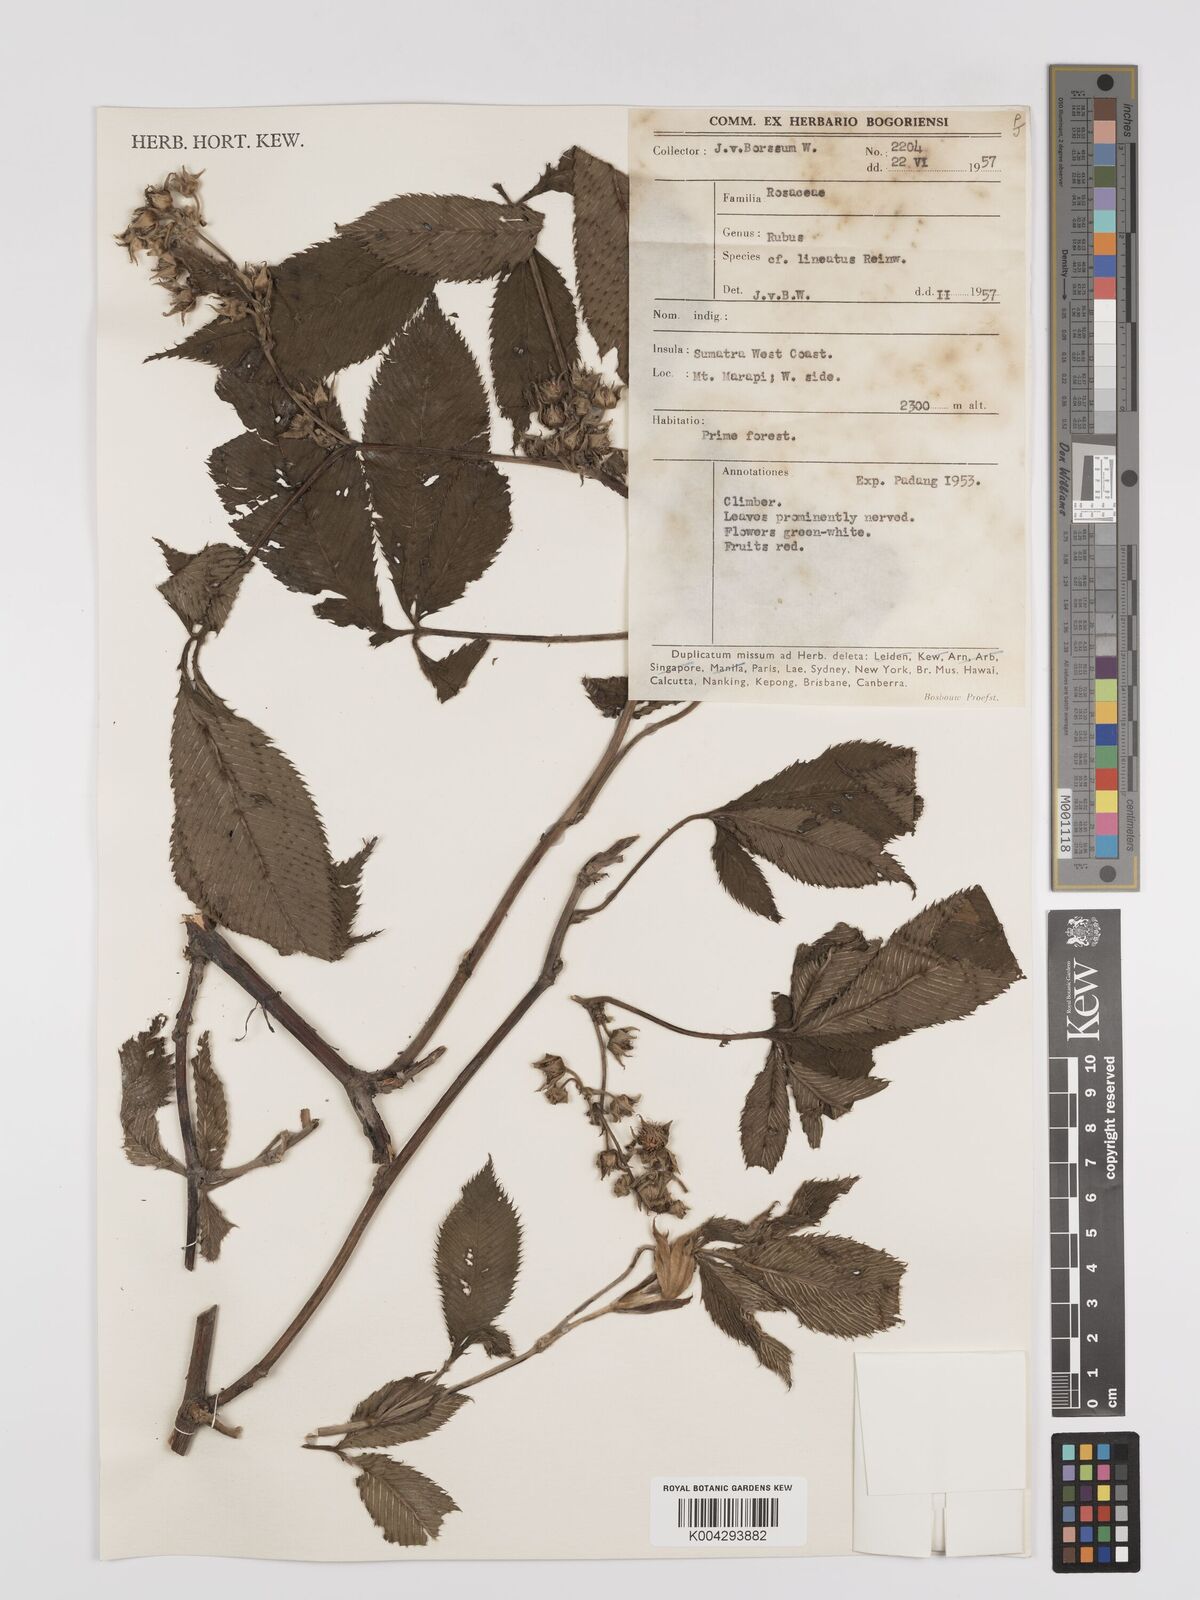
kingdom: Plantae
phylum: Tracheophyta
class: Magnoliopsida
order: Rosales
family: Rosaceae
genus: Rubus
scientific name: Rubus lineatus
